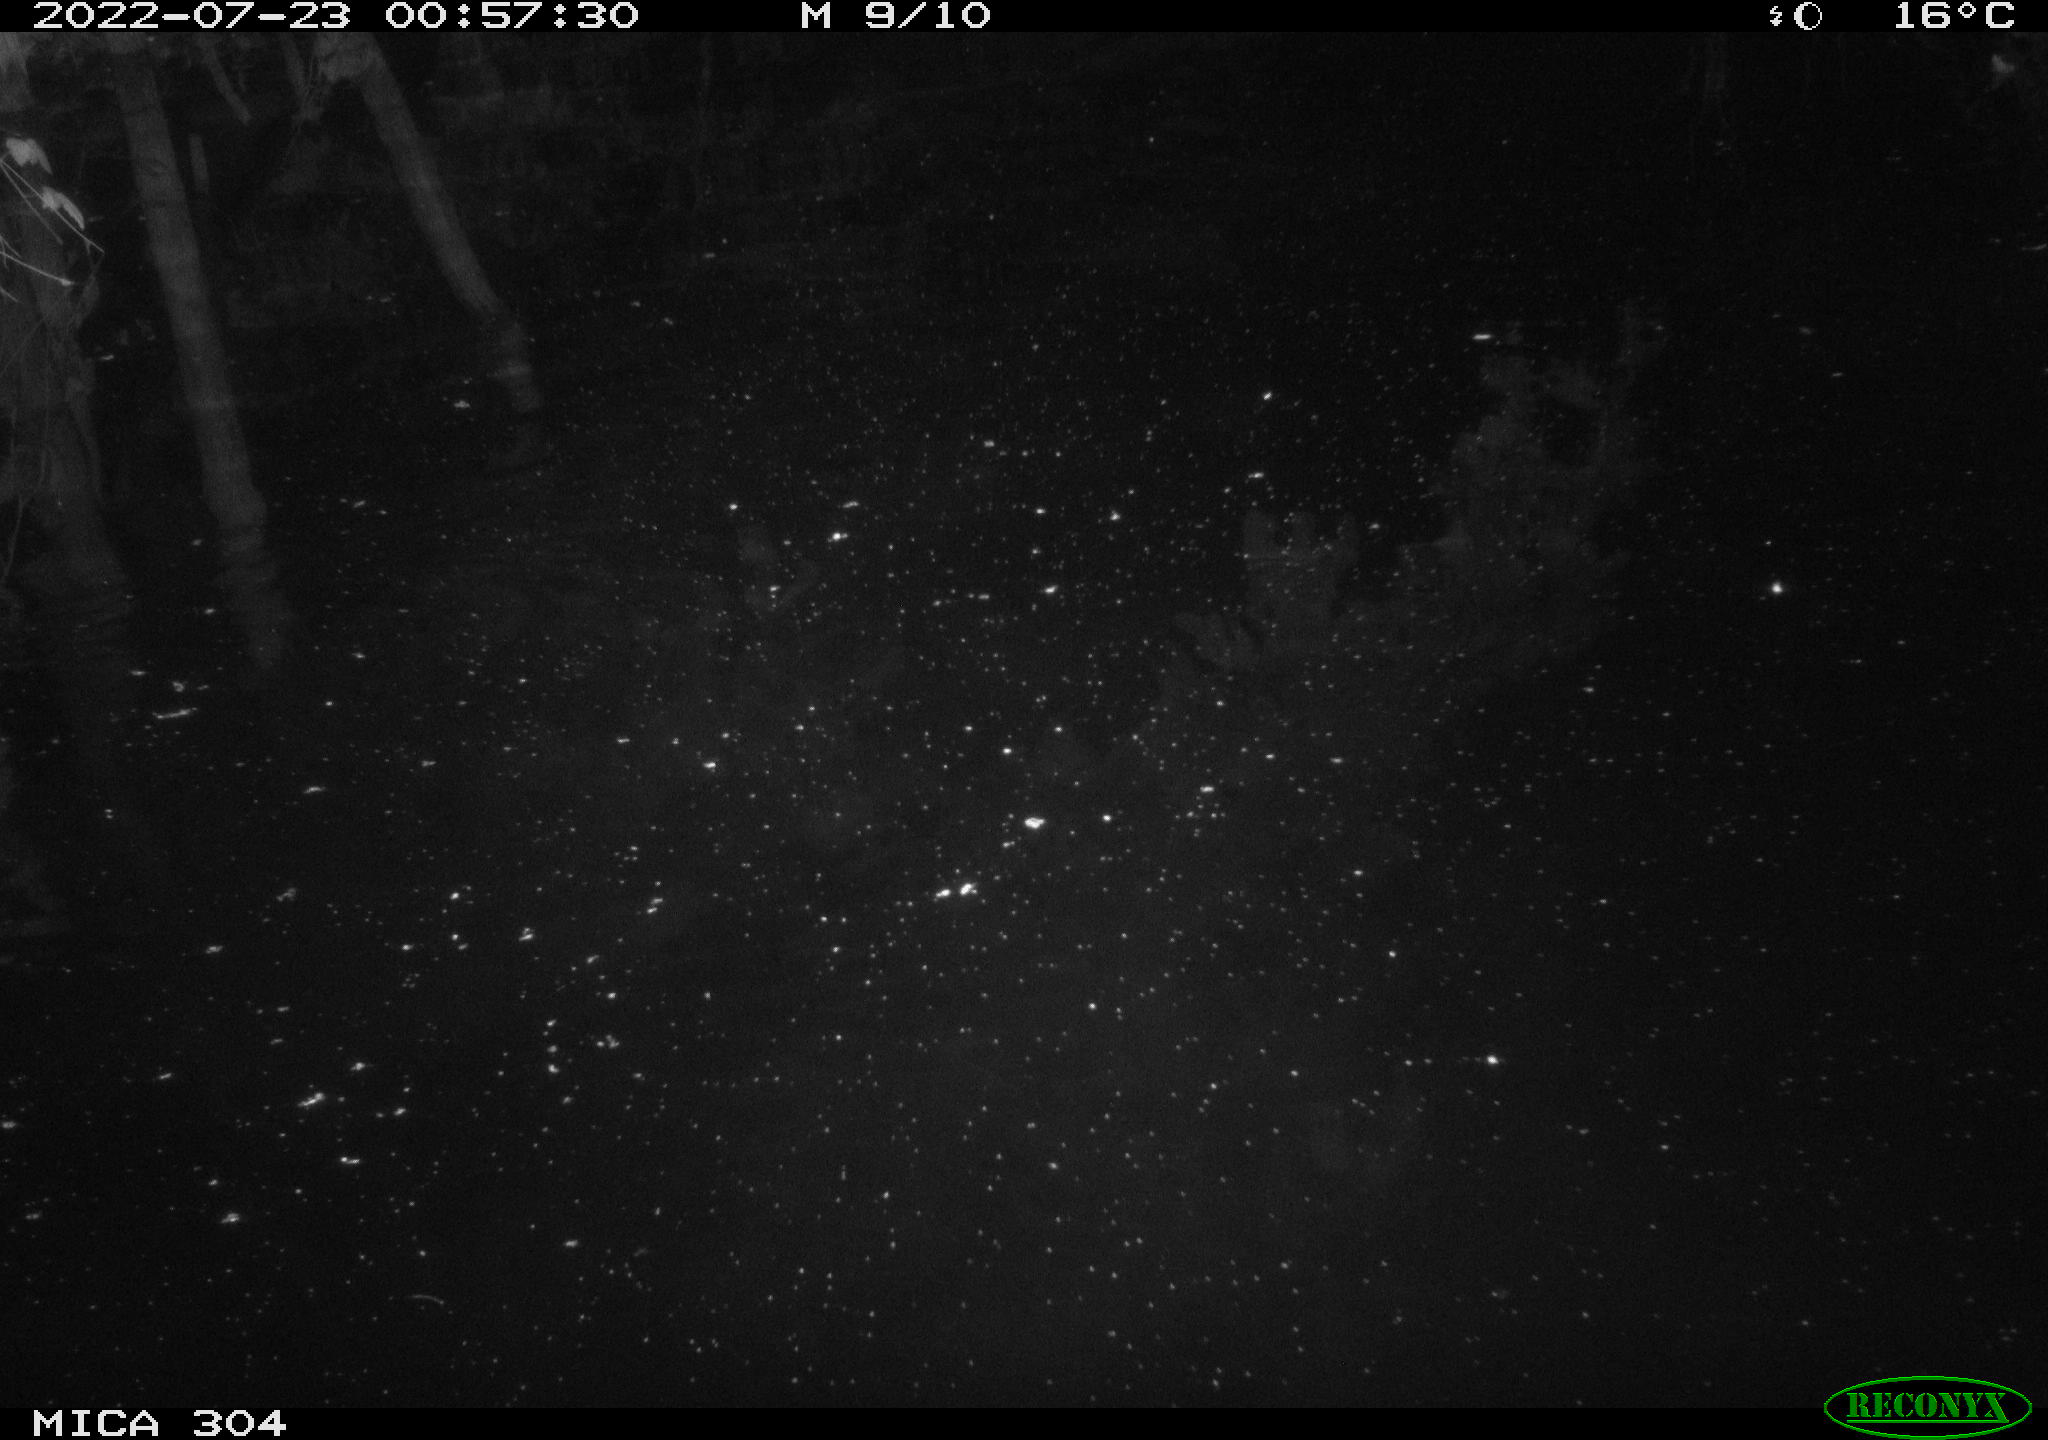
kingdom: Animalia
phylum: Chordata
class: Mammalia
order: Rodentia
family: Muridae
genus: Rattus
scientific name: Rattus norvegicus
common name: Brown rat
